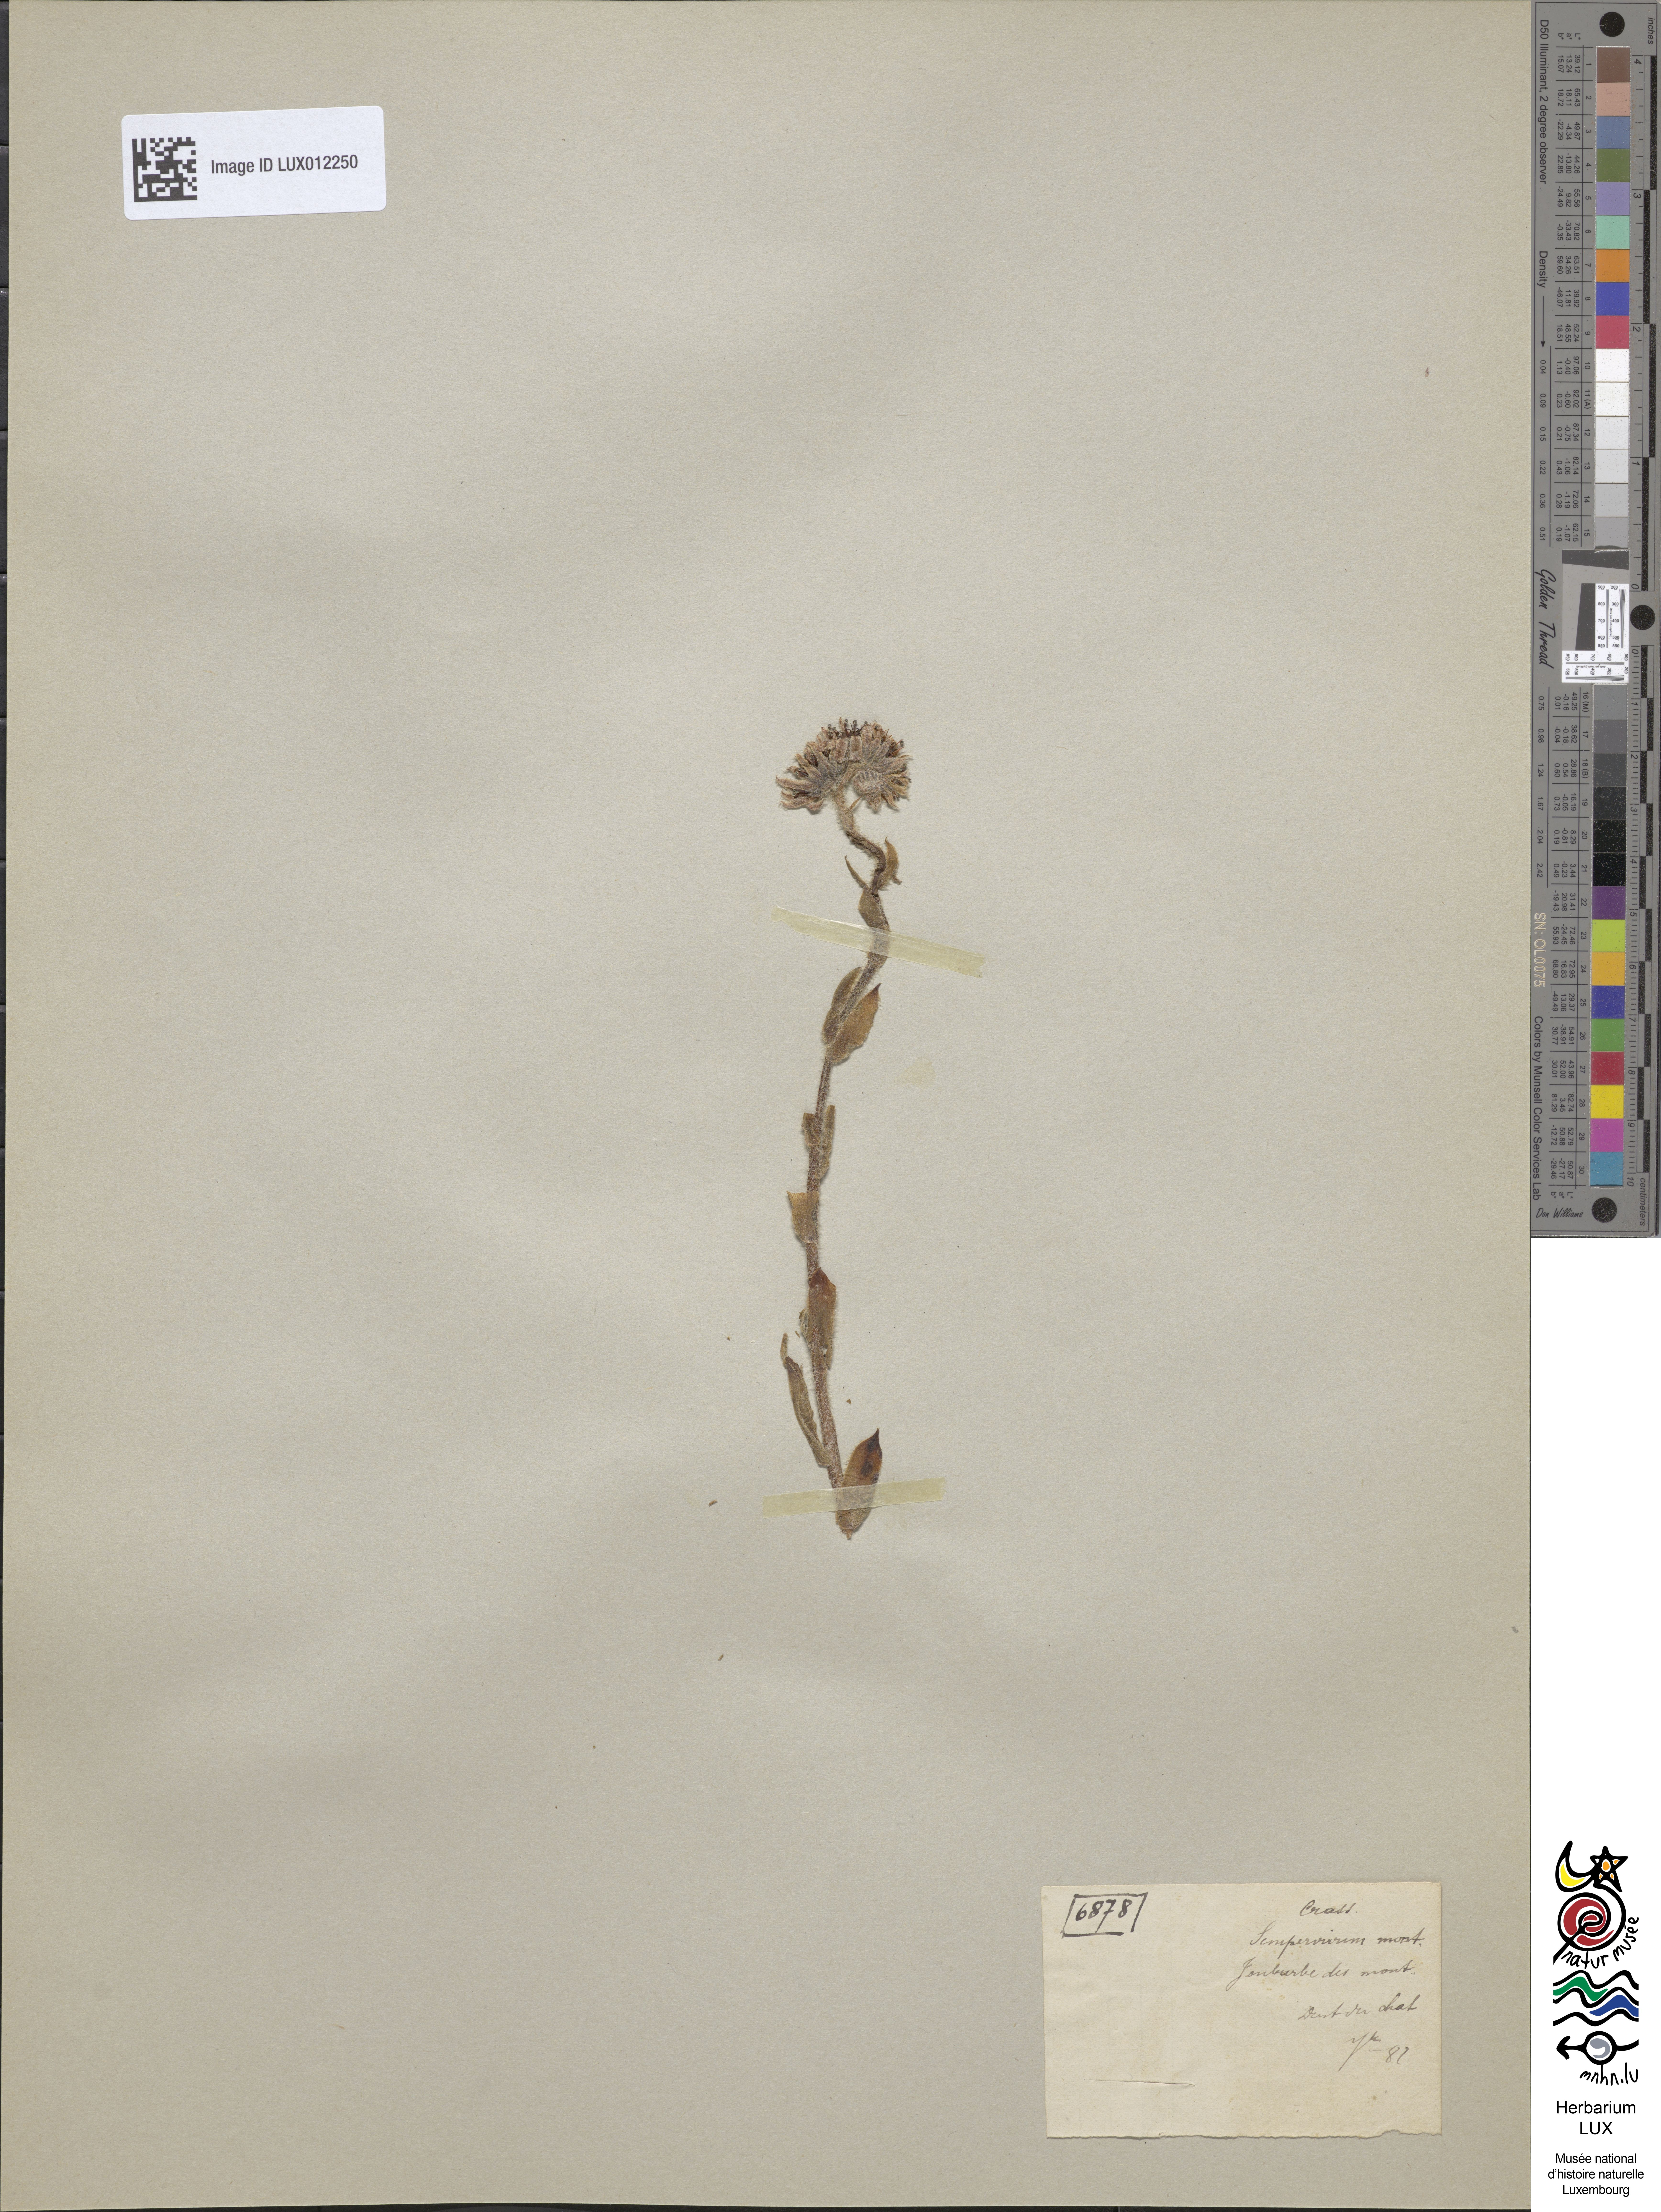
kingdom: Plantae
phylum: Tracheophyta
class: Magnoliopsida
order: Saxifragales
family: Crassulaceae
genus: Sempervivum
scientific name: Sempervivum montanum
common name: Mountain house-leek
